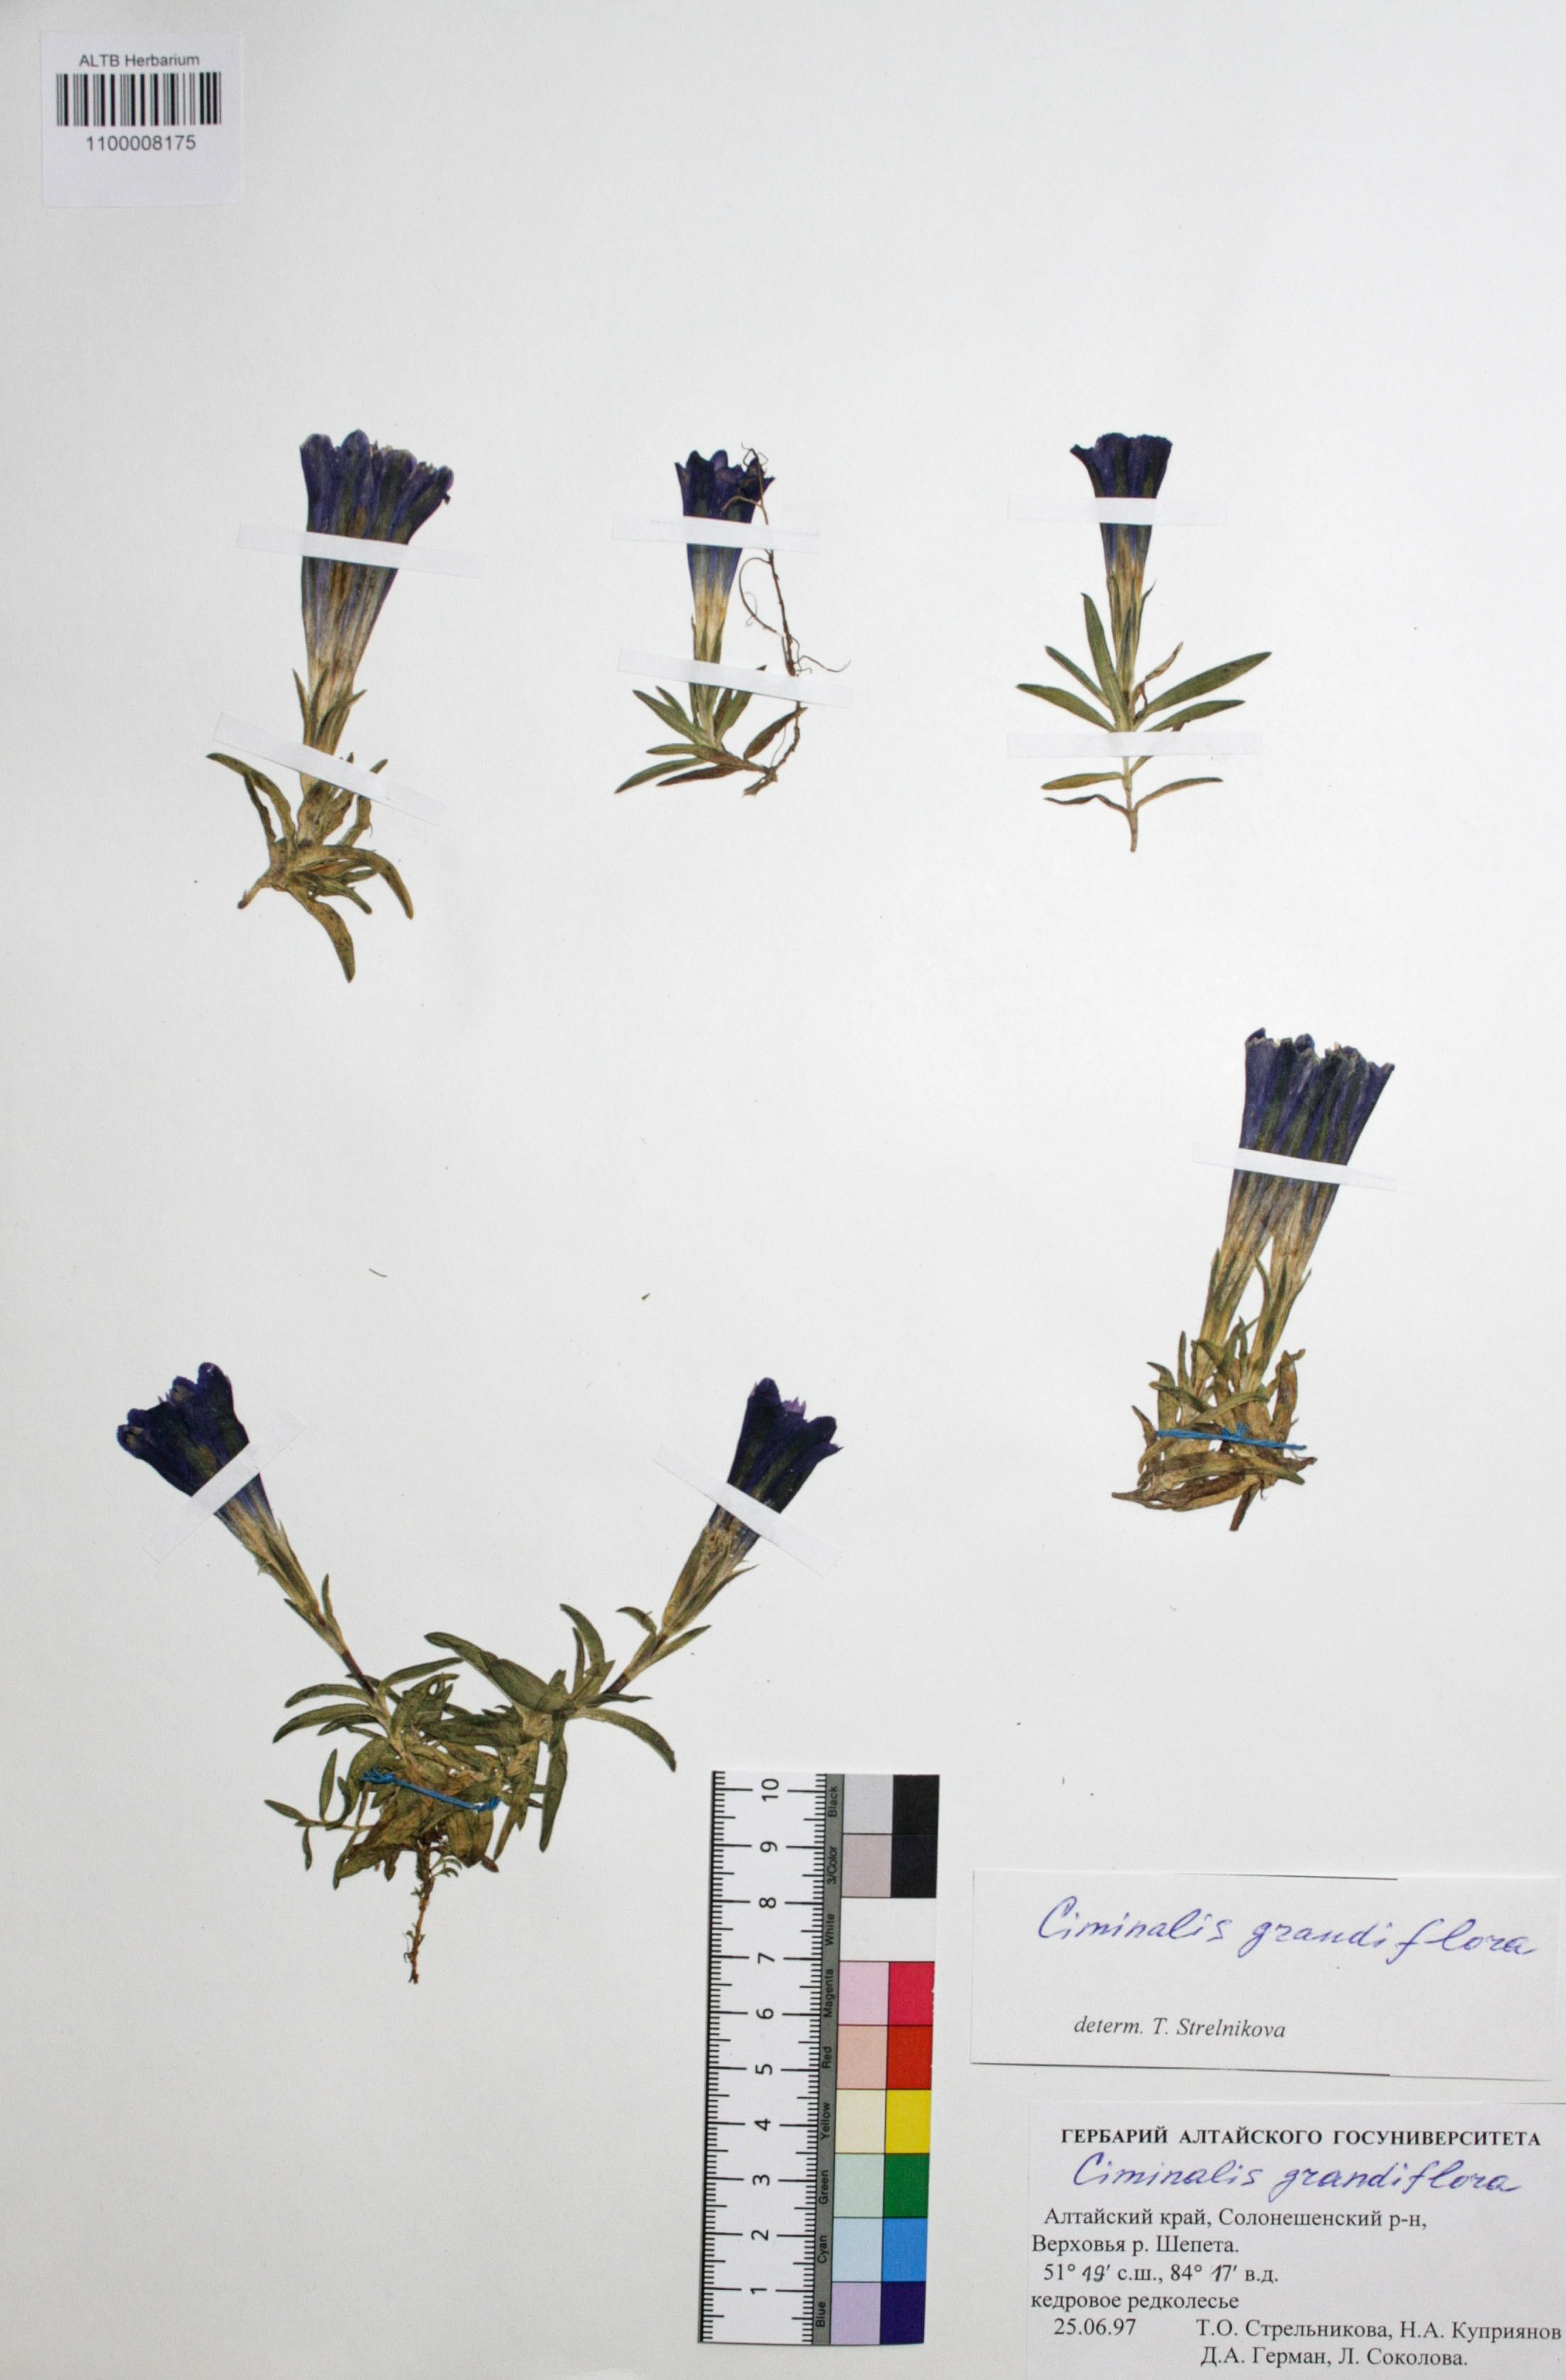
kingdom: Plantae
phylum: Tracheophyta
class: Magnoliopsida
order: Gentianales
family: Gentianaceae
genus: Gentiana
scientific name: Gentiana grandiflora
